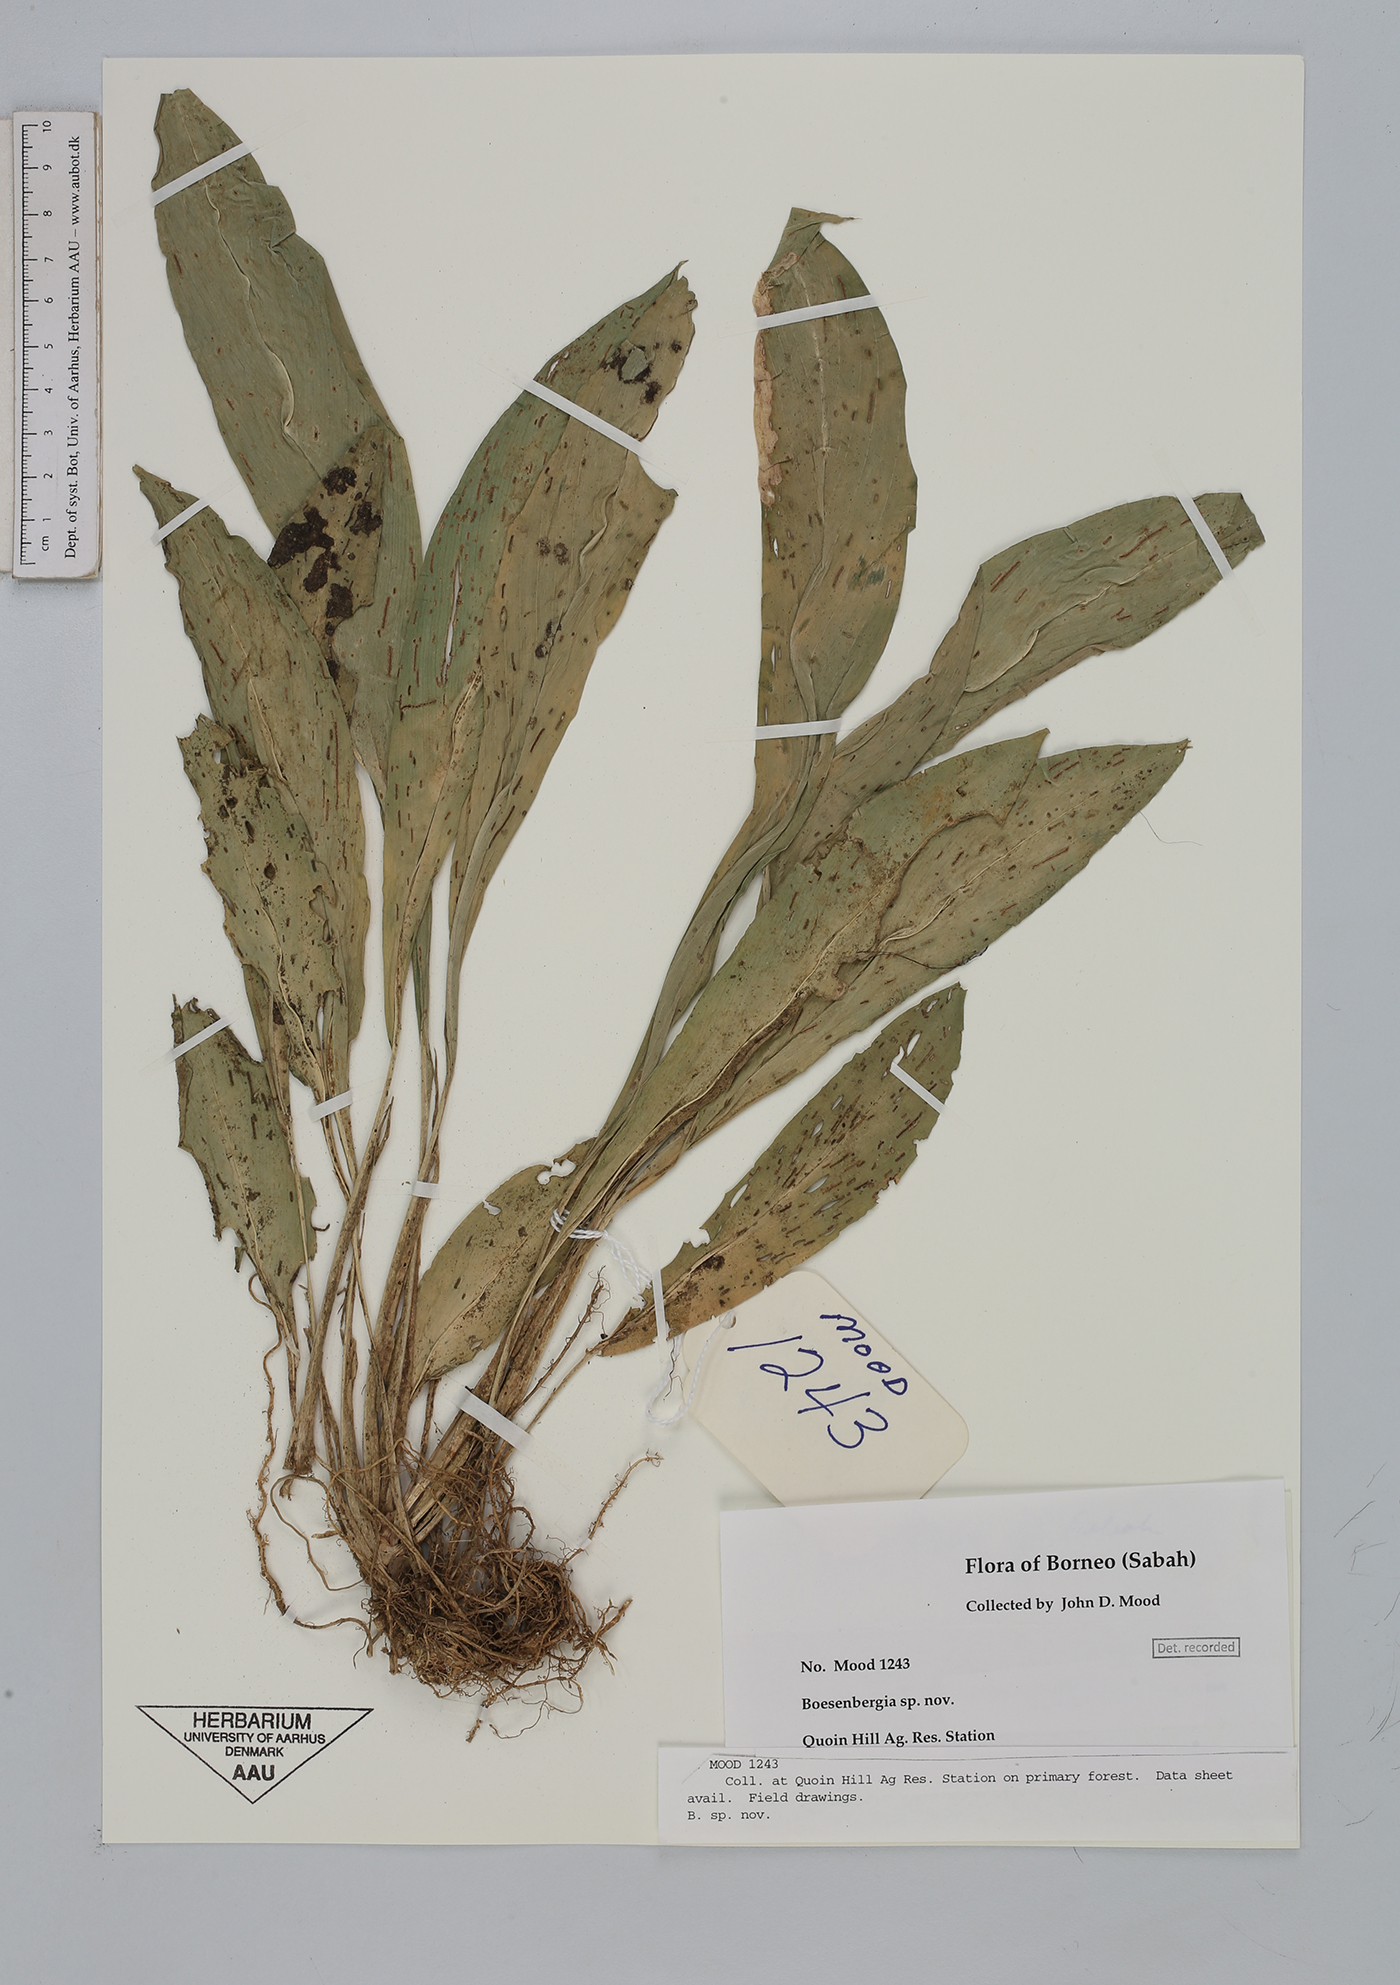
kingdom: Plantae
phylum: Tracheophyta
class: Liliopsida
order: Zingiberales
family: Zingiberaceae
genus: Boesenbergia
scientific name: Boesenbergia
